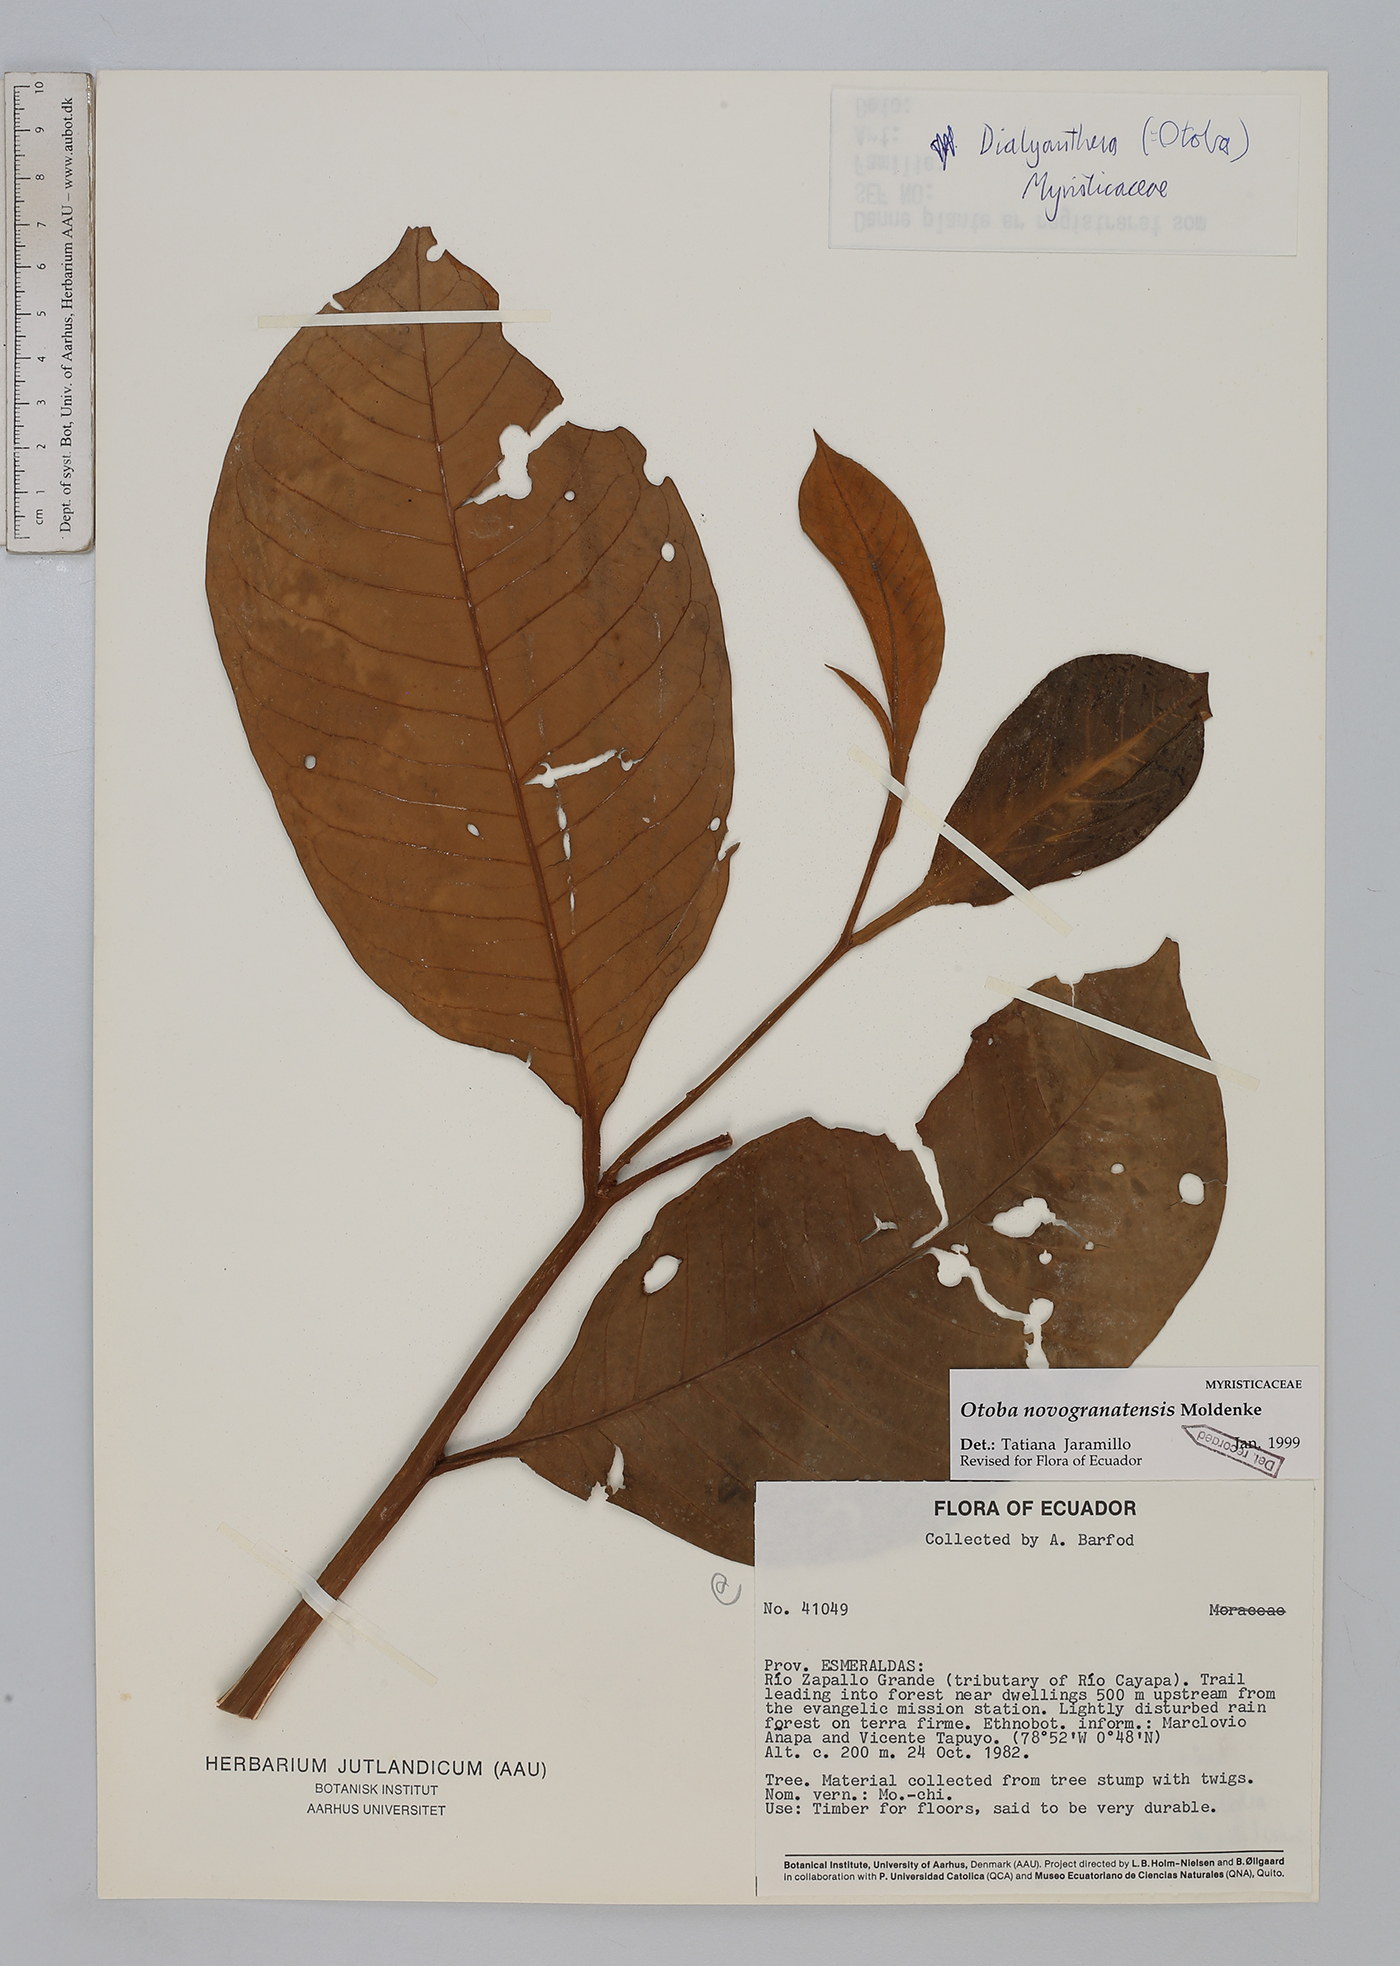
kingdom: Plantae
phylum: Tracheophyta
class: Magnoliopsida
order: Magnoliales
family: Myristicaceae
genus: Otoba
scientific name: Otoba novogranatensis
